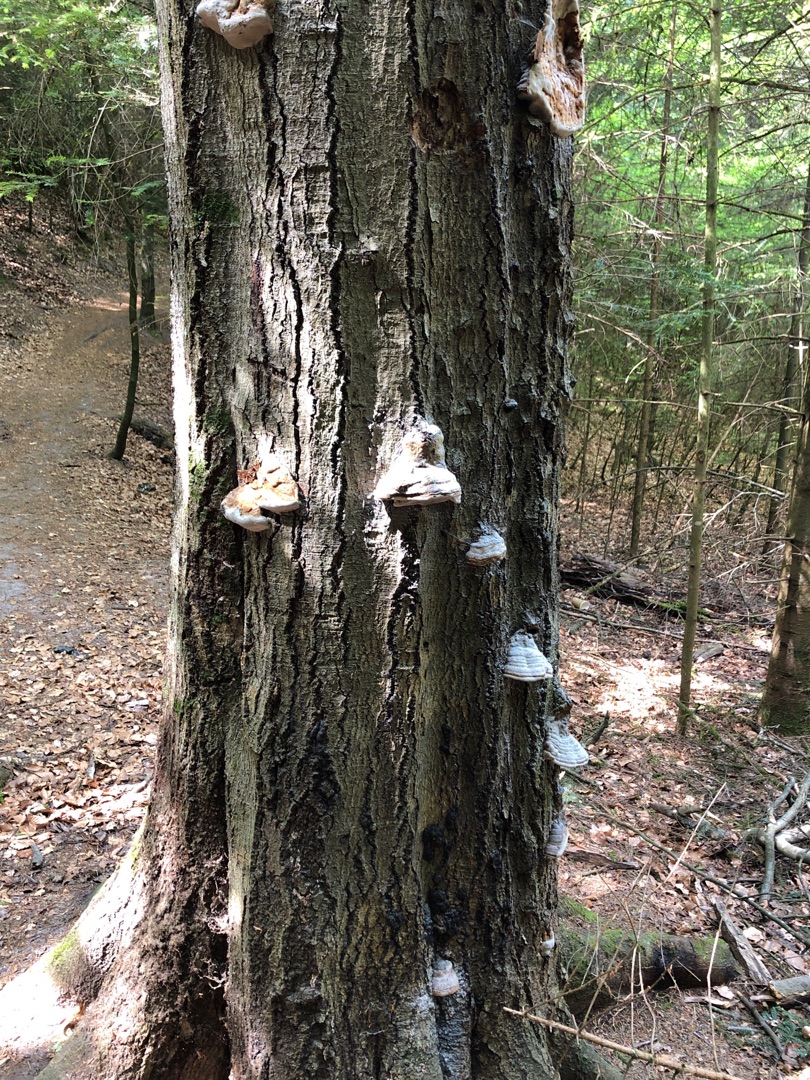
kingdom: Fungi
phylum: Basidiomycota
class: Agaricomycetes
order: Polyporales
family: Polyporaceae
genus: Fomes
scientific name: Fomes fomentarius
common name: Tøndersvamp
